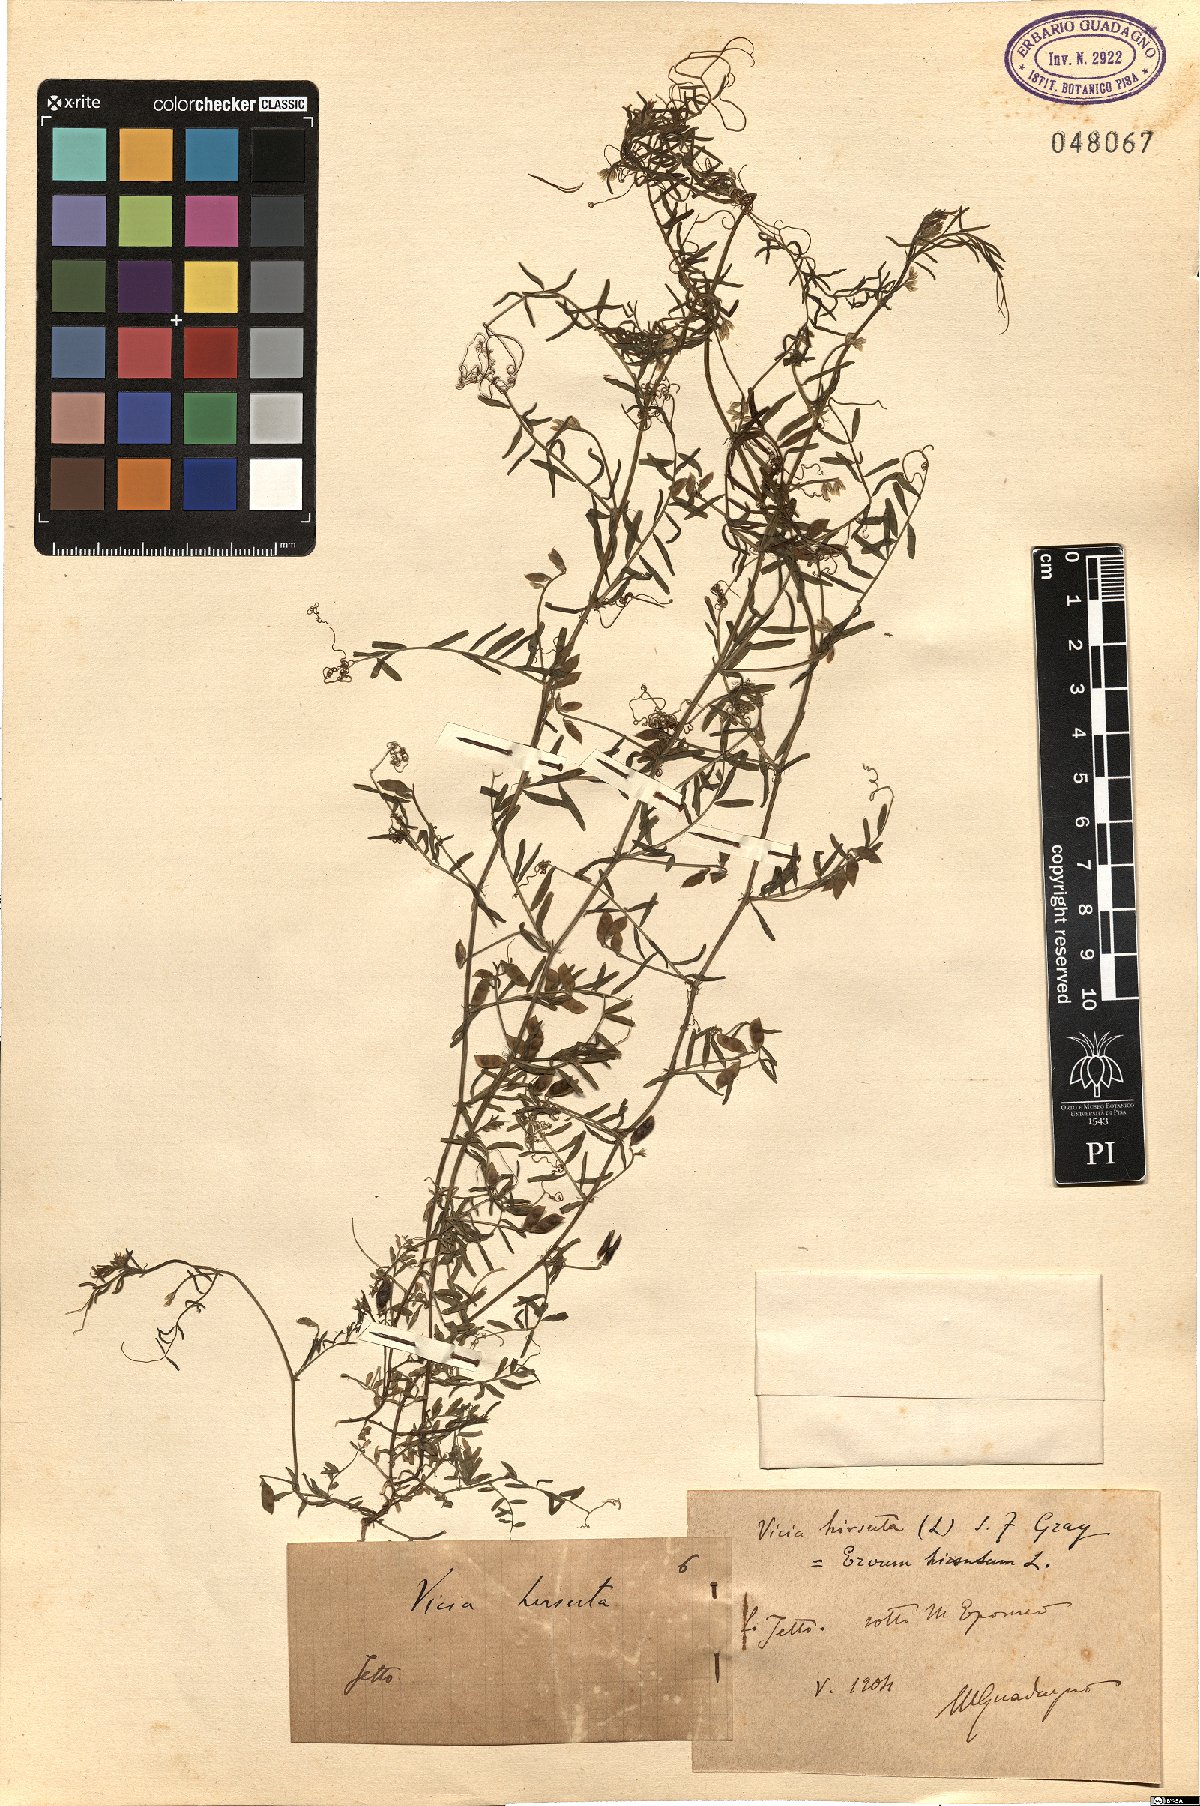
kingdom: Plantae
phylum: Tracheophyta
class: Magnoliopsida
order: Fabales
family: Fabaceae
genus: Vicia
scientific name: Vicia hirsuta
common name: Tiny vetch
